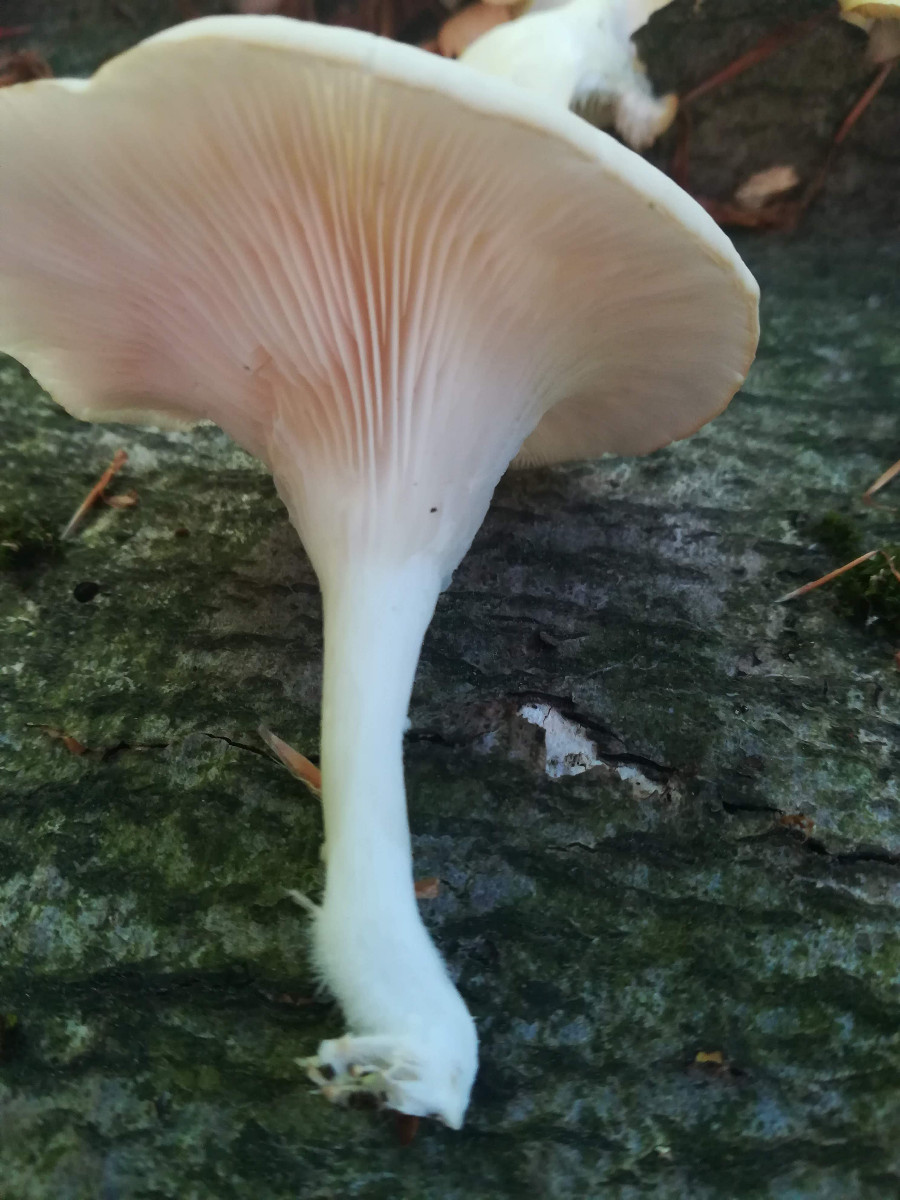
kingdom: Fungi
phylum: Basidiomycota
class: Agaricomycetes
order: Agaricales
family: Pleurotaceae
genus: Pleurotus
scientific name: Pleurotus pulmonarius
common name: sommer-østershat
